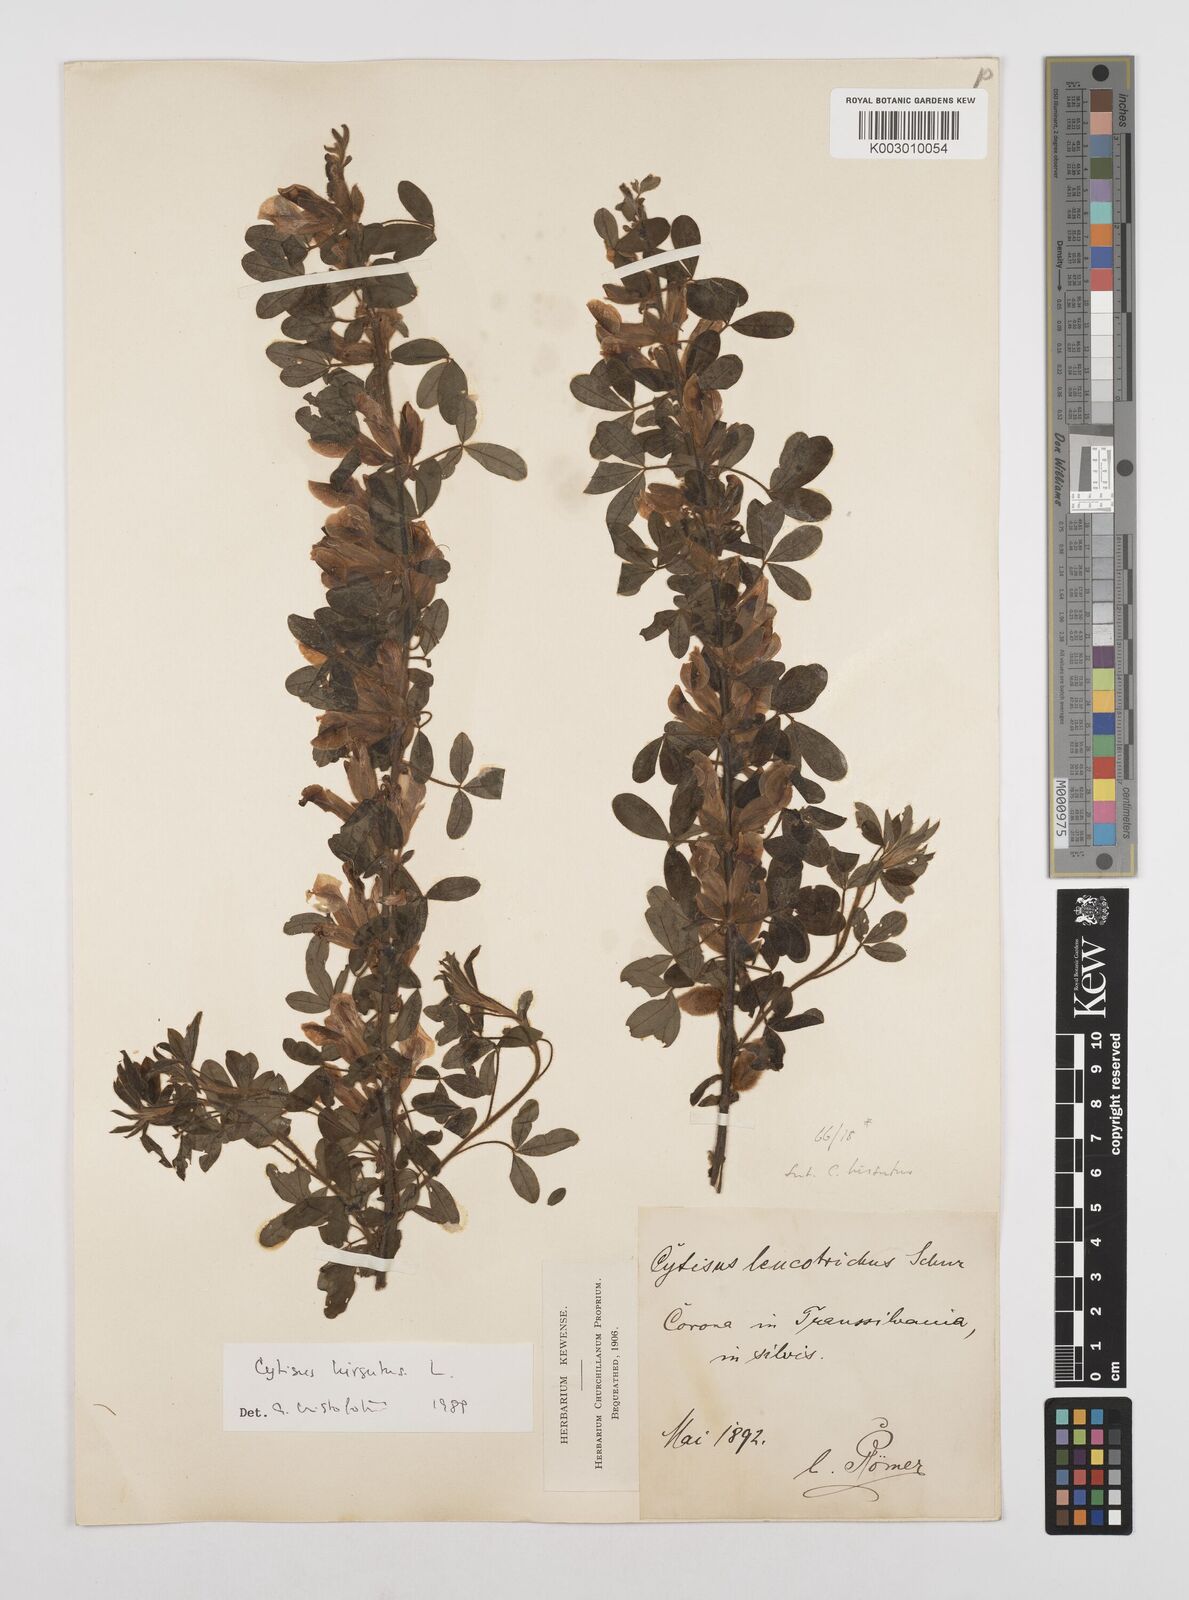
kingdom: Plantae
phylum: Tracheophyta
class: Magnoliopsida
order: Fabales
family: Fabaceae
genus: Chamaecytisus
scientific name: Chamaecytisus hirsutus
